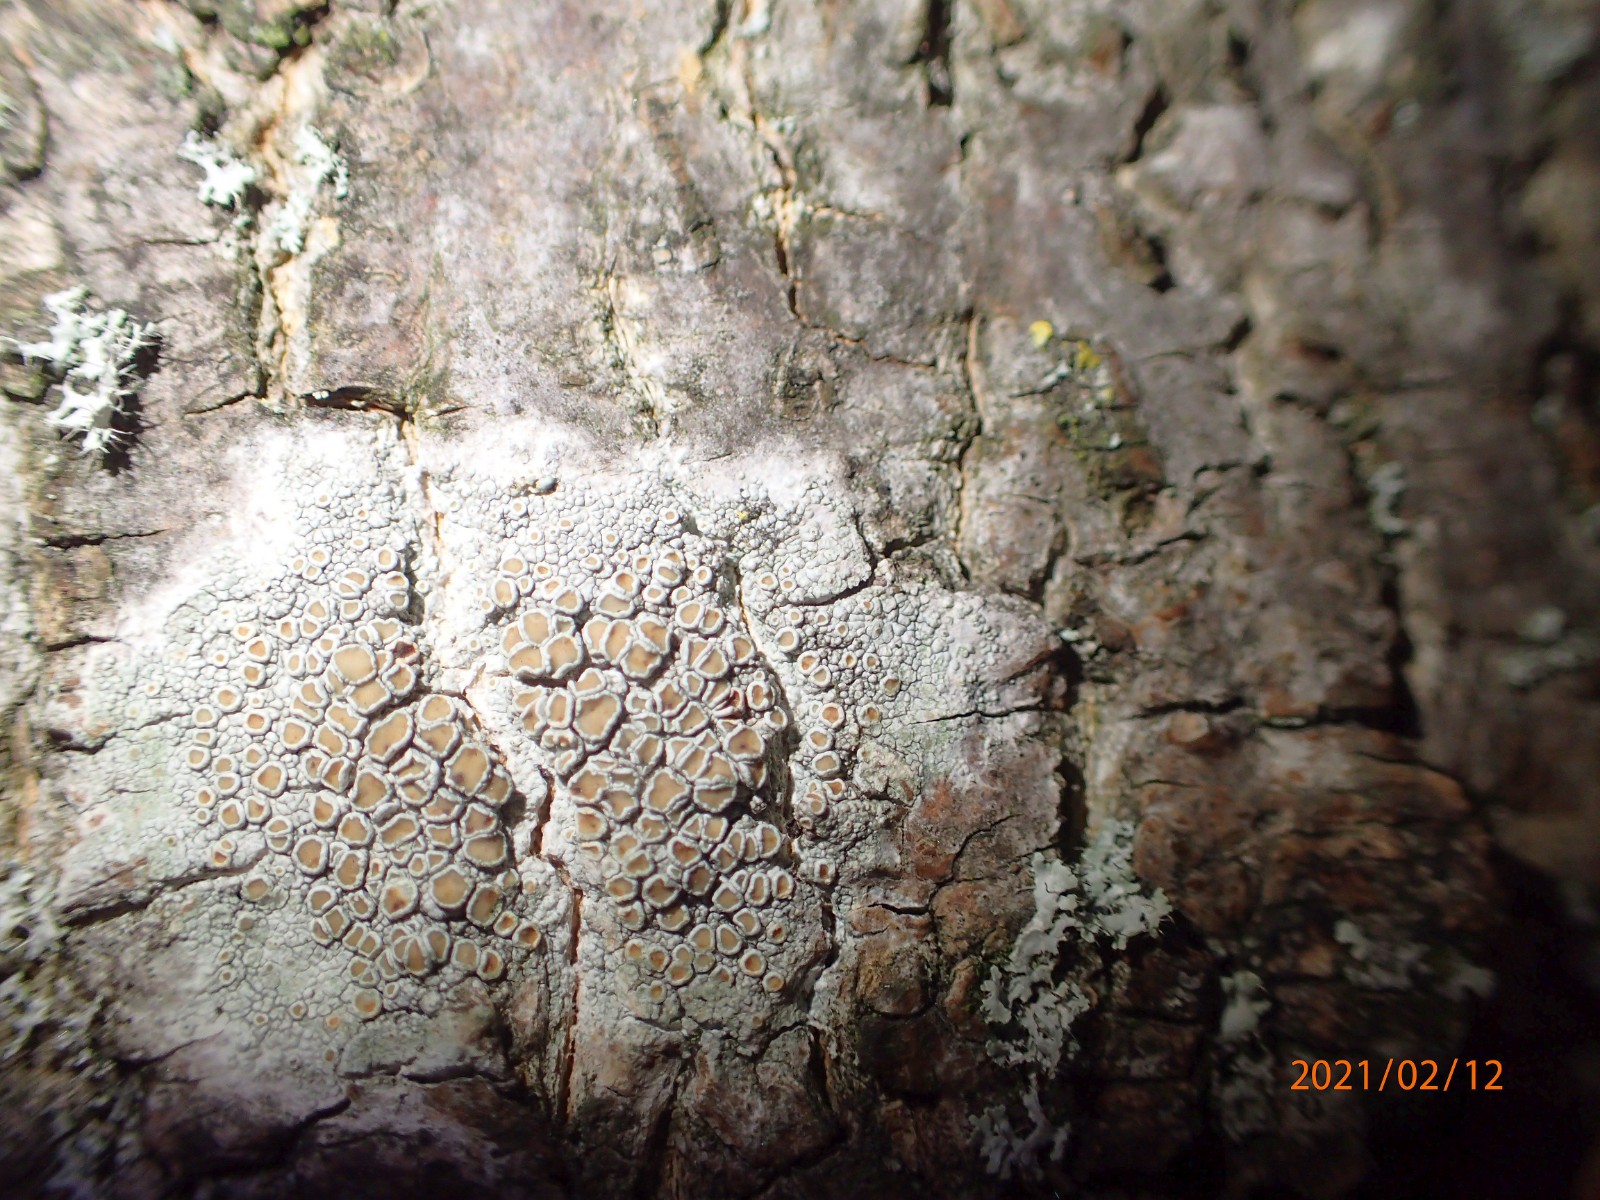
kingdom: Fungi
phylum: Ascomycota
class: Lecanoromycetes
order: Lecanorales
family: Lecanoraceae
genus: Lecanora
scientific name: Lecanora chlarotera
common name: brun kantskivelav
